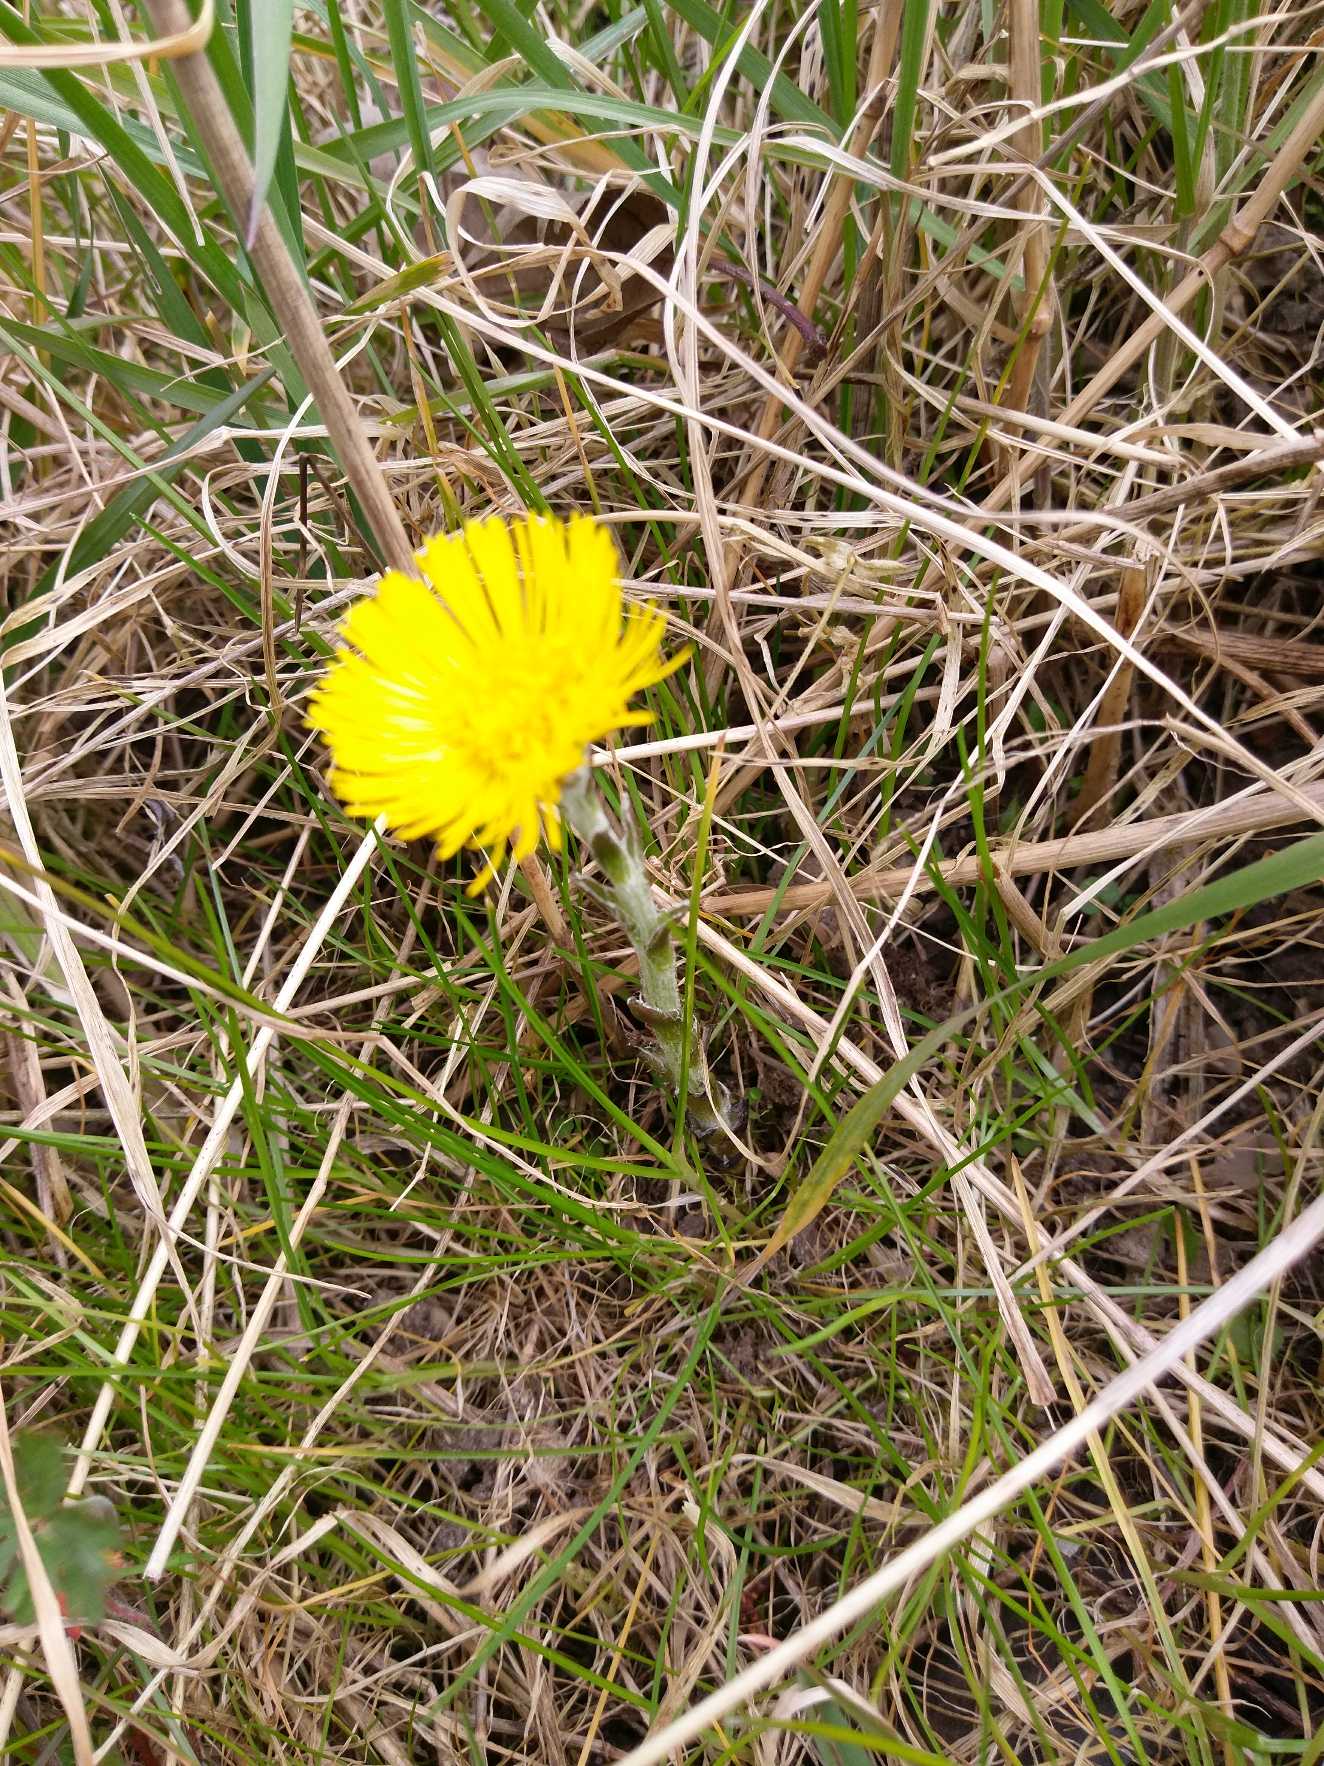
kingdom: Plantae
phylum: Tracheophyta
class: Magnoliopsida
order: Asterales
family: Asteraceae
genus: Tussilago
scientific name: Tussilago farfara
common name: Følfod
